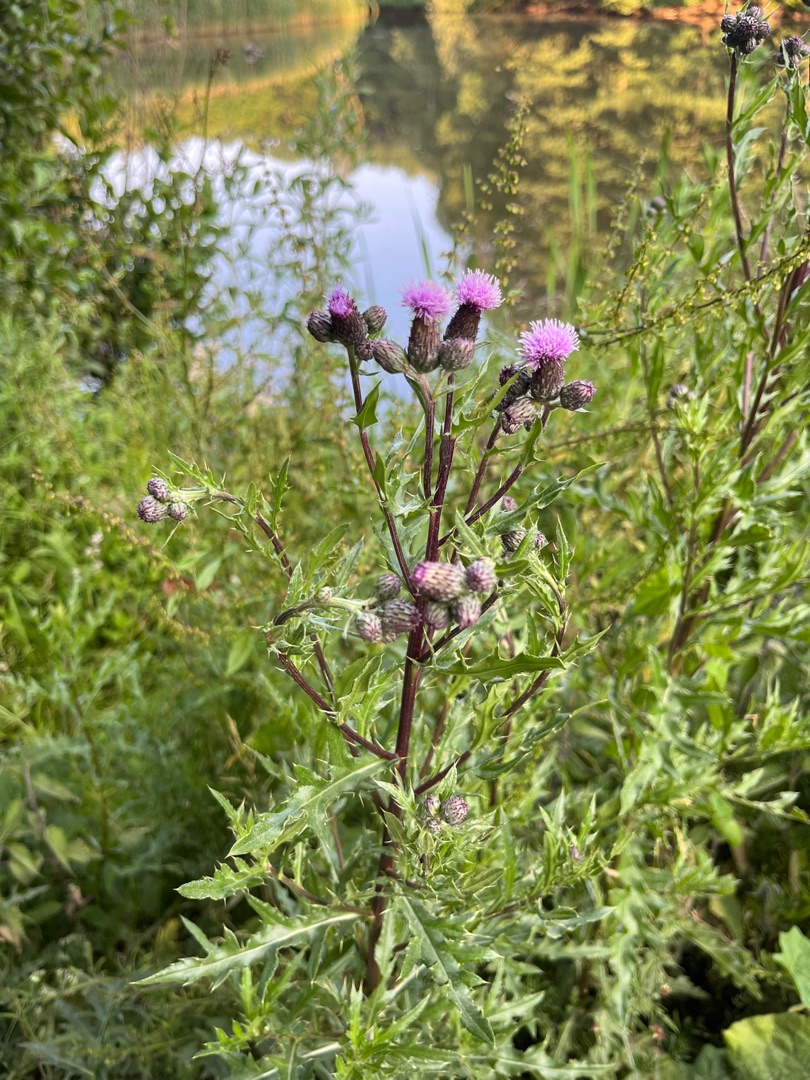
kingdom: Plantae
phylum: Tracheophyta
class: Magnoliopsida
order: Asterales
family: Asteraceae
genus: Cirsium
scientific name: Cirsium arvense
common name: Ager-tidsel
